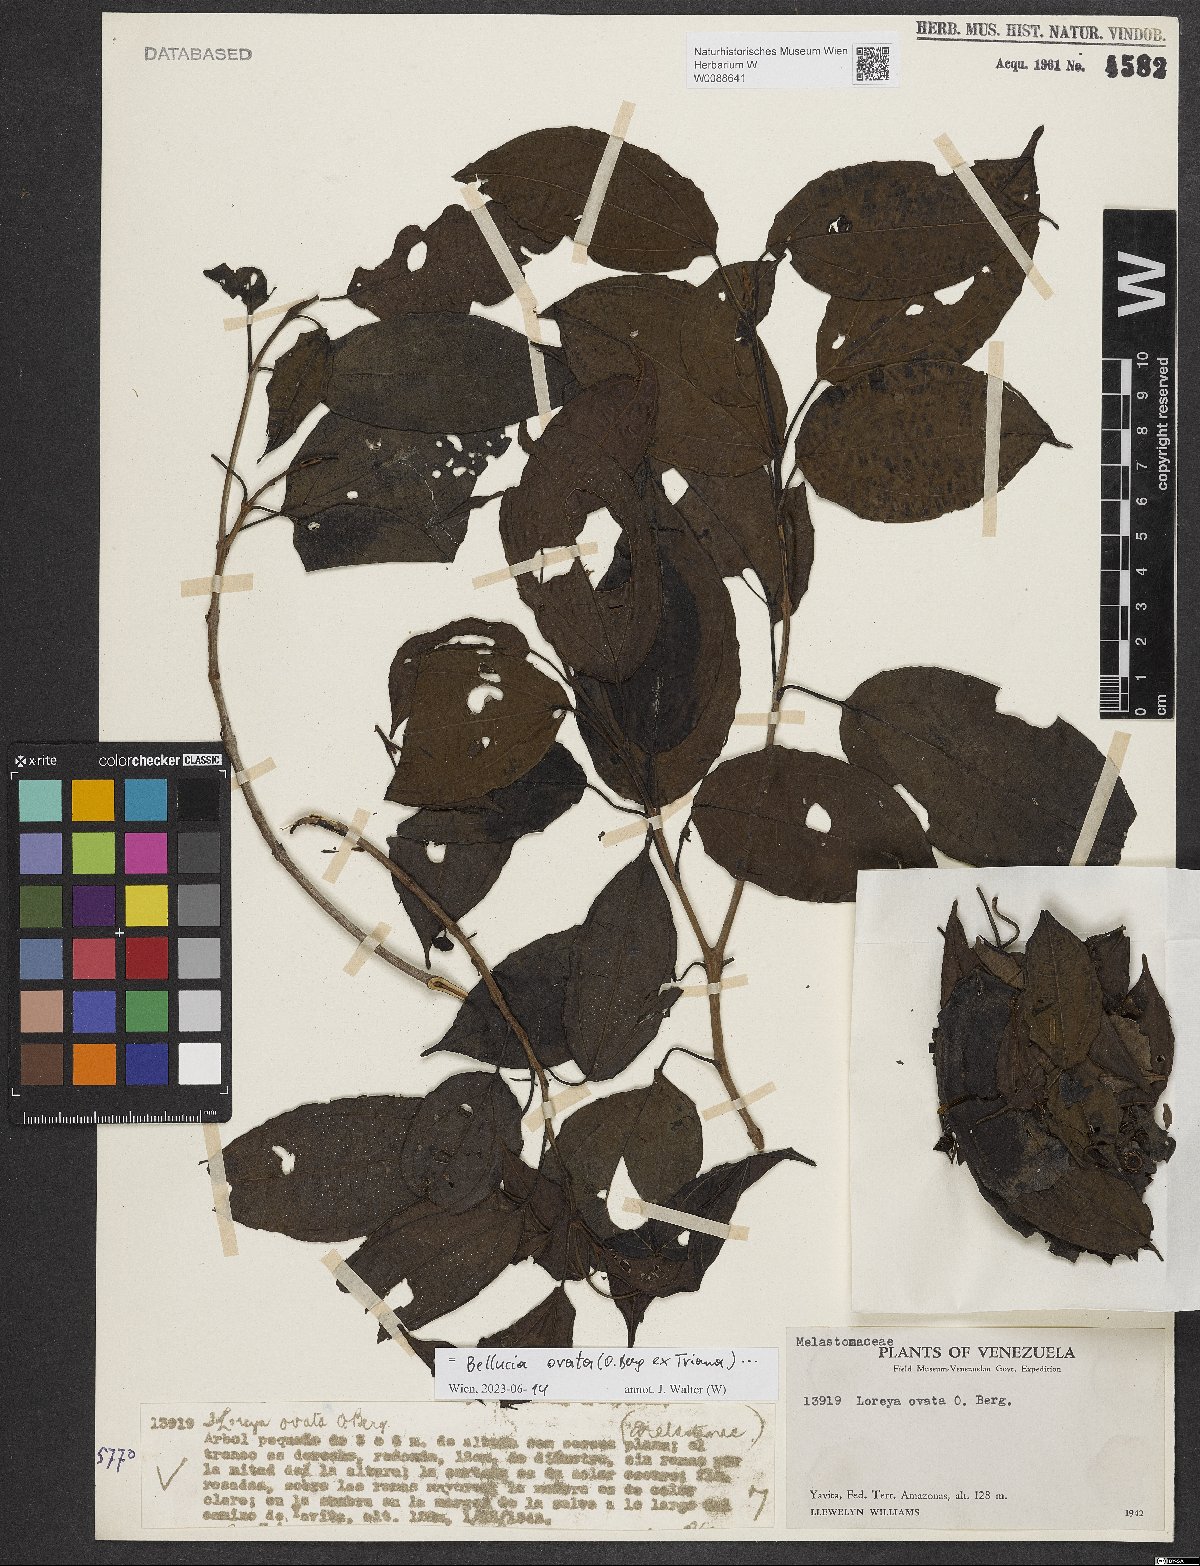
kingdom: Plantae
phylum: Tracheophyta
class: Magnoliopsida
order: Myrtales
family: Melastomataceae
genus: Bellucia
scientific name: Bellucia ovata
